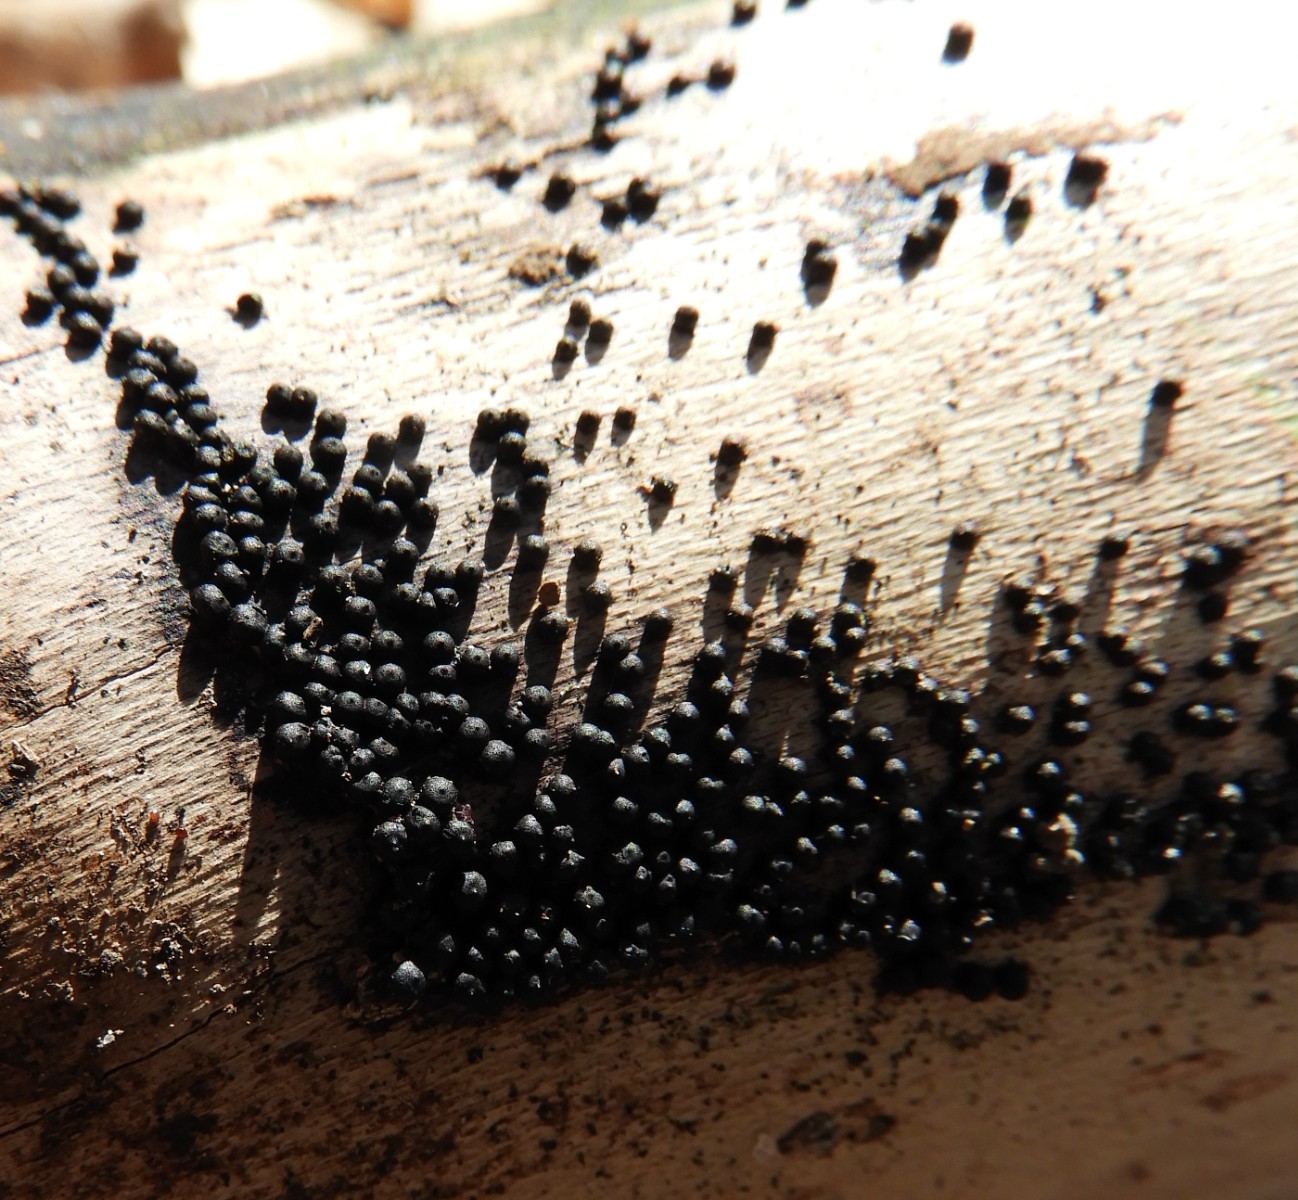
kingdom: Fungi
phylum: Ascomycota
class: Sordariomycetes
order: Xylariales
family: Xylariaceae
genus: Rosellinia
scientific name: Rosellinia
